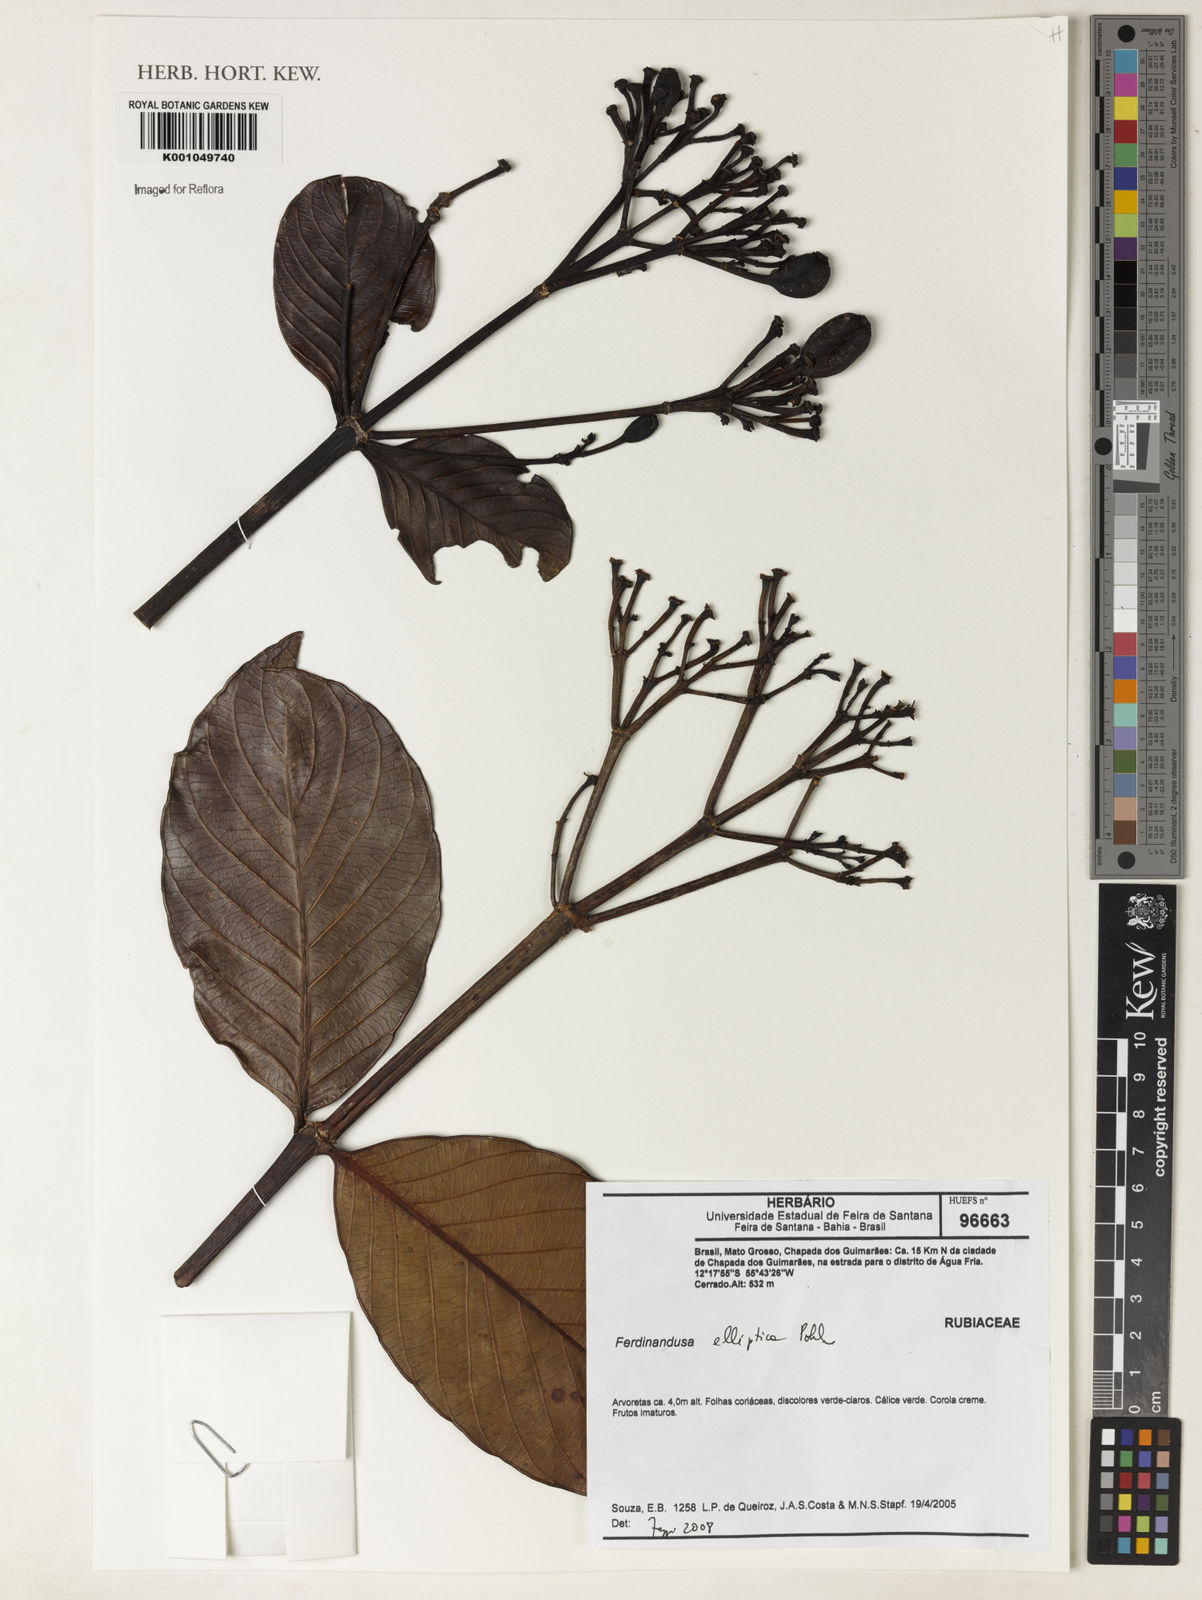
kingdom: Plantae
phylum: Tracheophyta
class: Magnoliopsida
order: Gentianales
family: Rubiaceae
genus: Ferdinandusa
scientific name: Ferdinandusa elliptica
